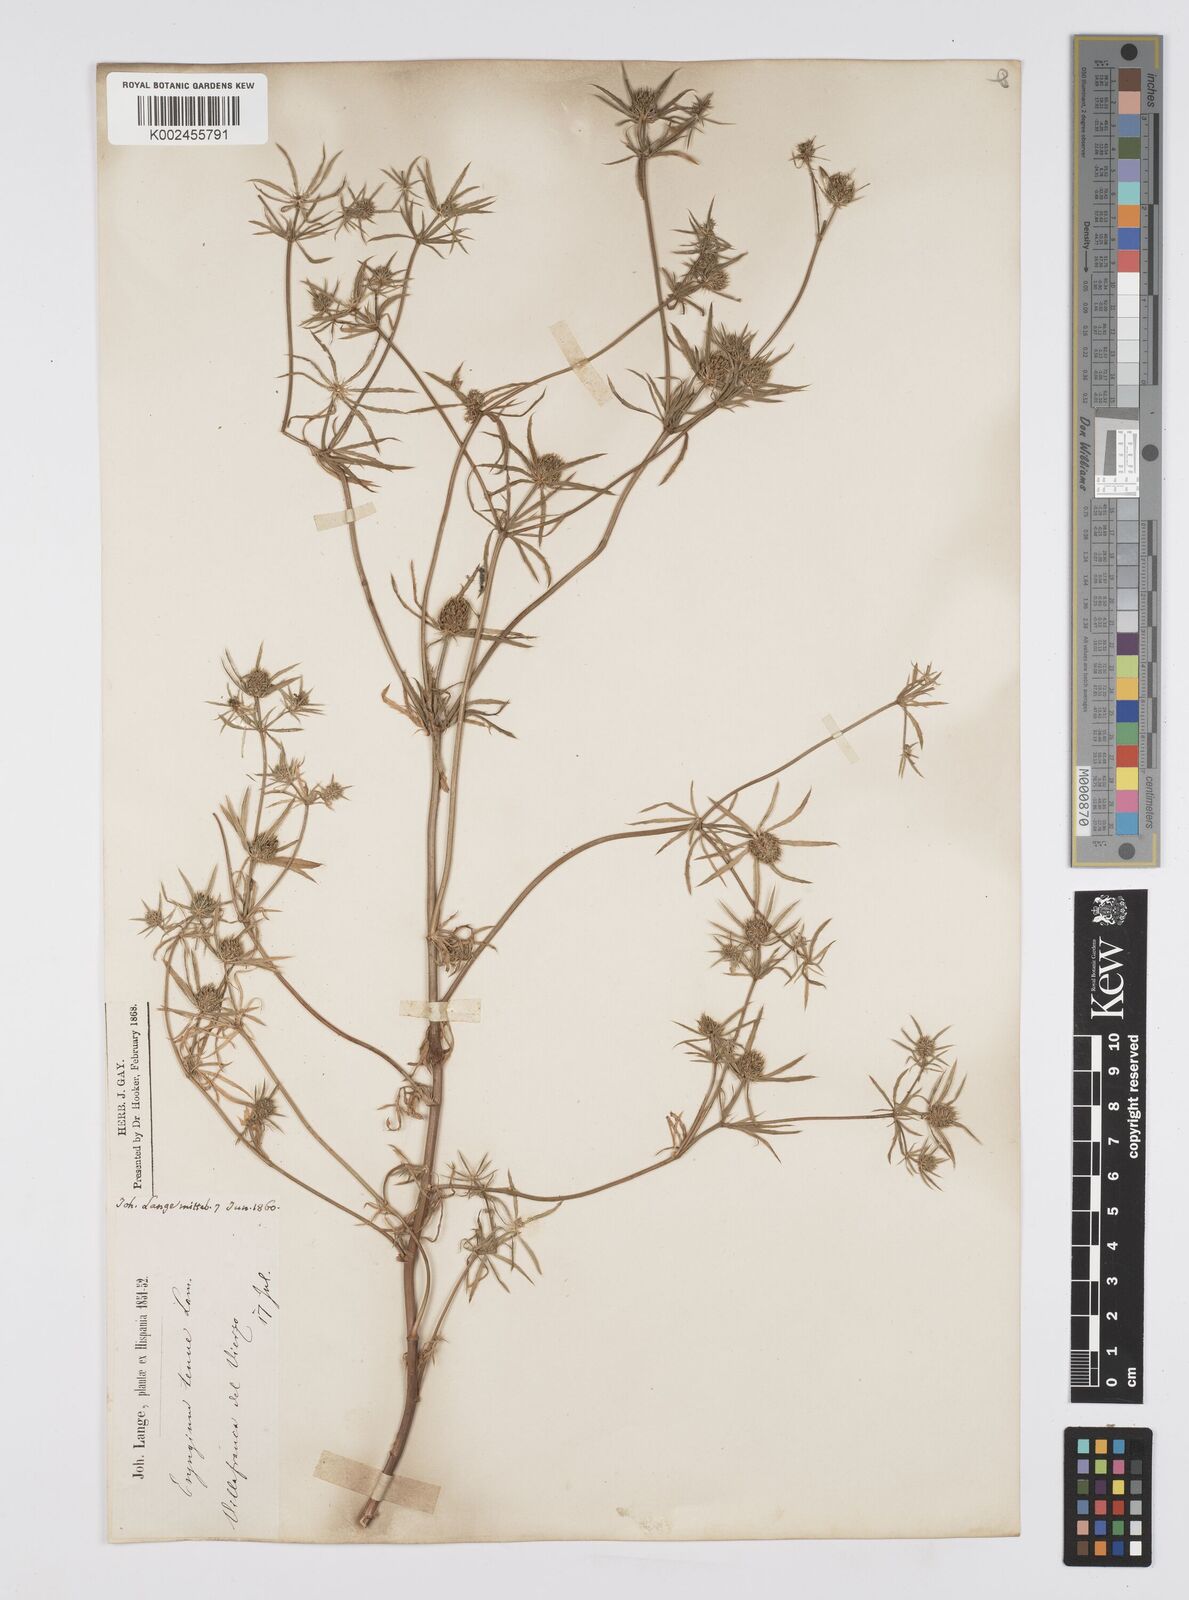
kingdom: Plantae
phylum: Tracheophyta
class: Magnoliopsida
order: Apiales
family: Apiaceae
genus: Eryngium
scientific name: Eryngium
